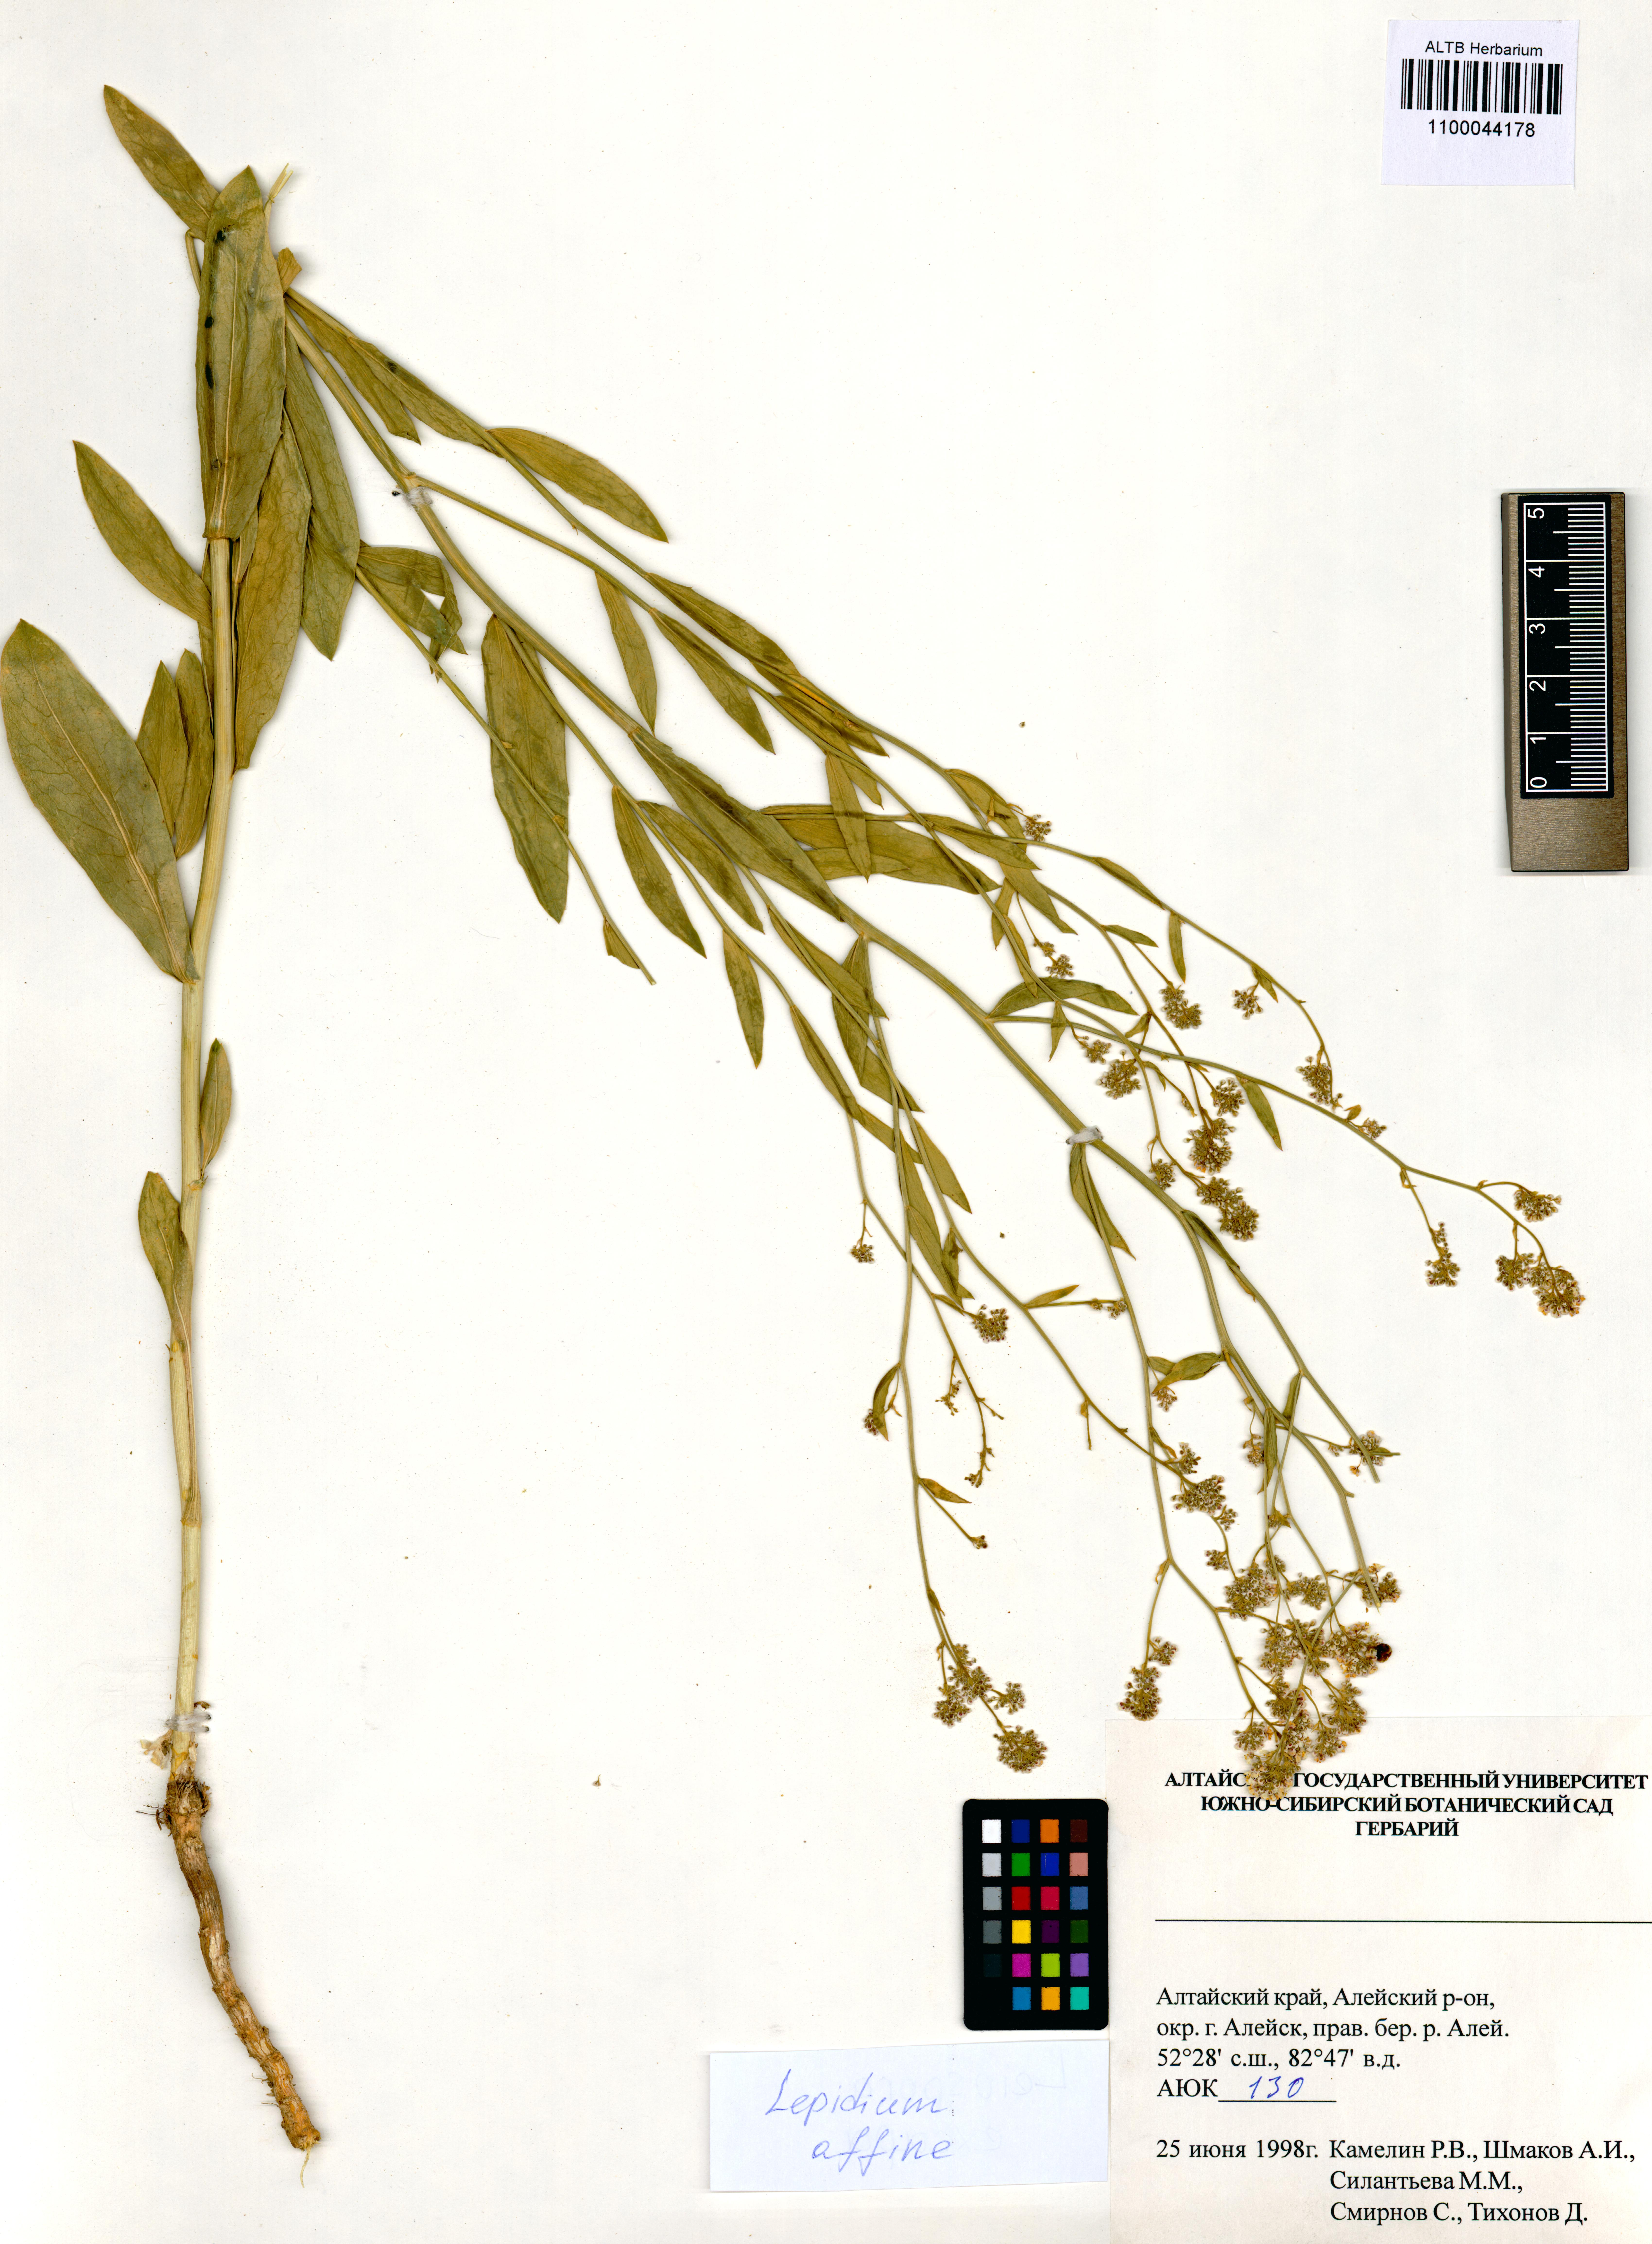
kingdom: Plantae
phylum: Tracheophyta
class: Magnoliopsida
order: Brassicales
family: Brassicaceae
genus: Lepidium
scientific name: Lepidium latifolium
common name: Dittander
